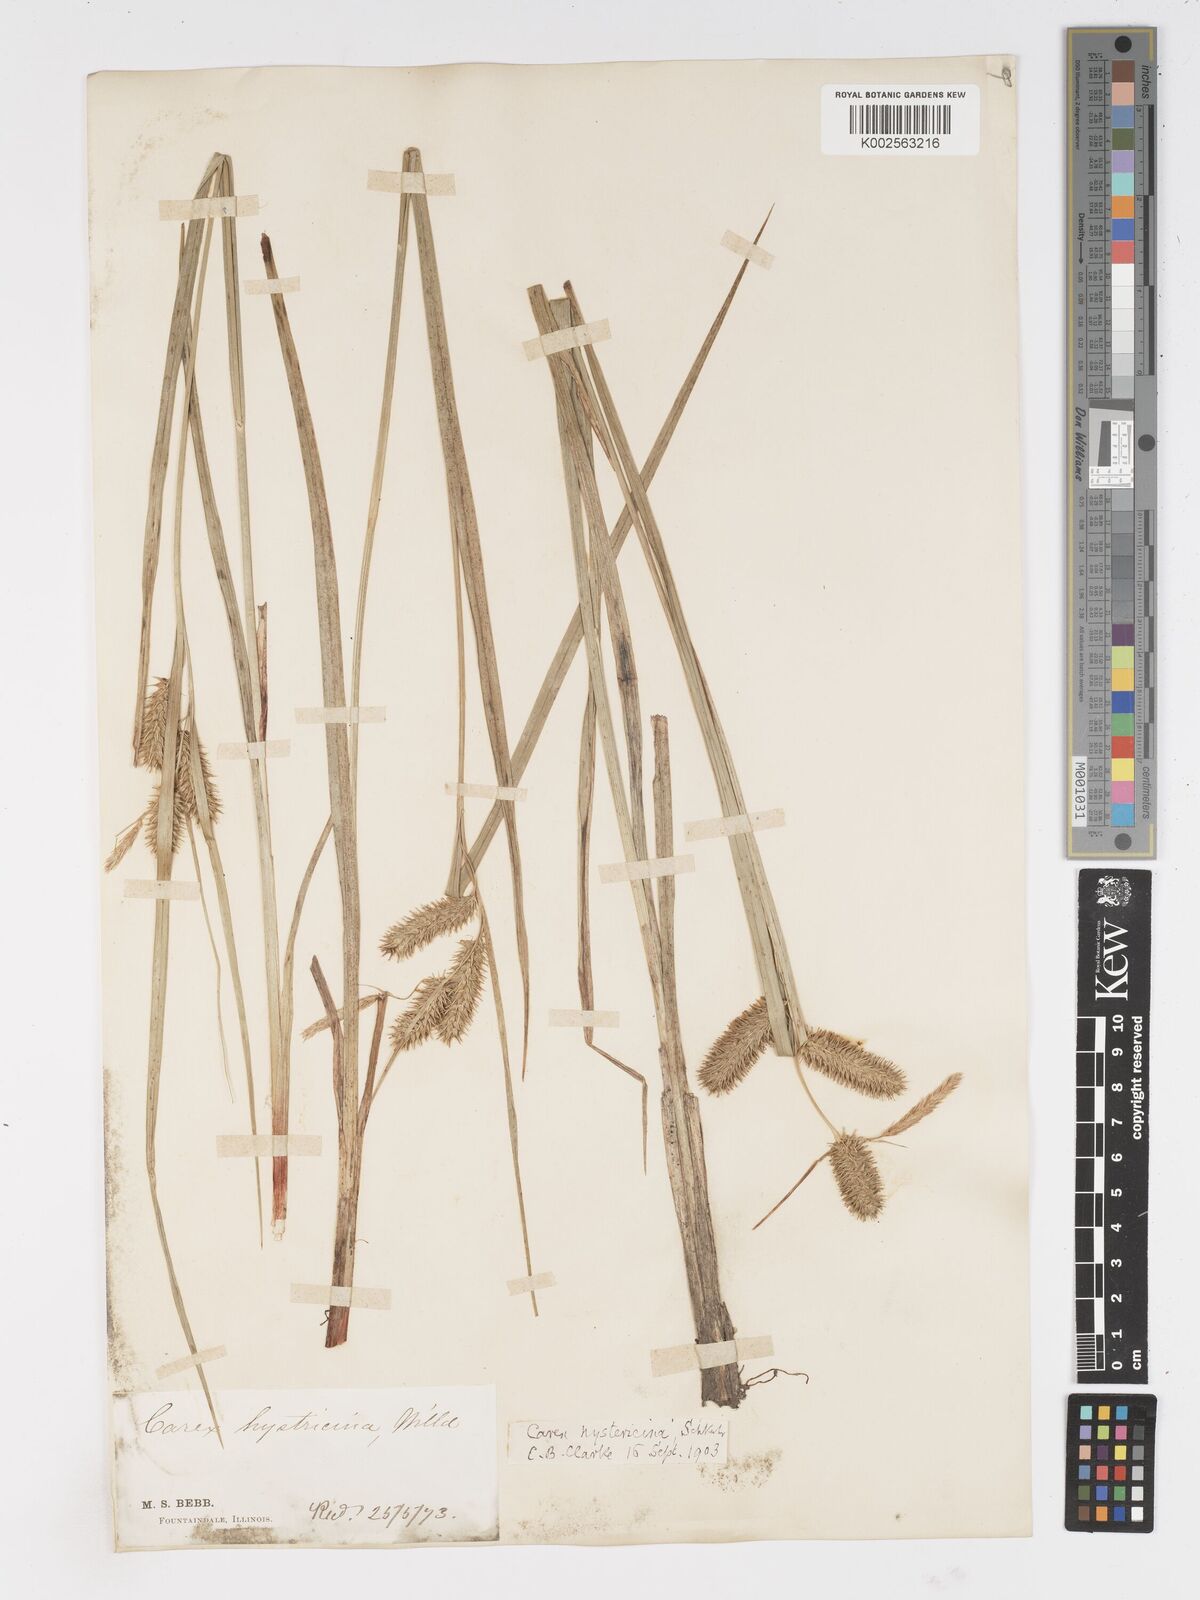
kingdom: Plantae
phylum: Tracheophyta
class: Liliopsida
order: Poales
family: Cyperaceae
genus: Carex
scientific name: Carex hystericina
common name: Bottlebrush sedge
